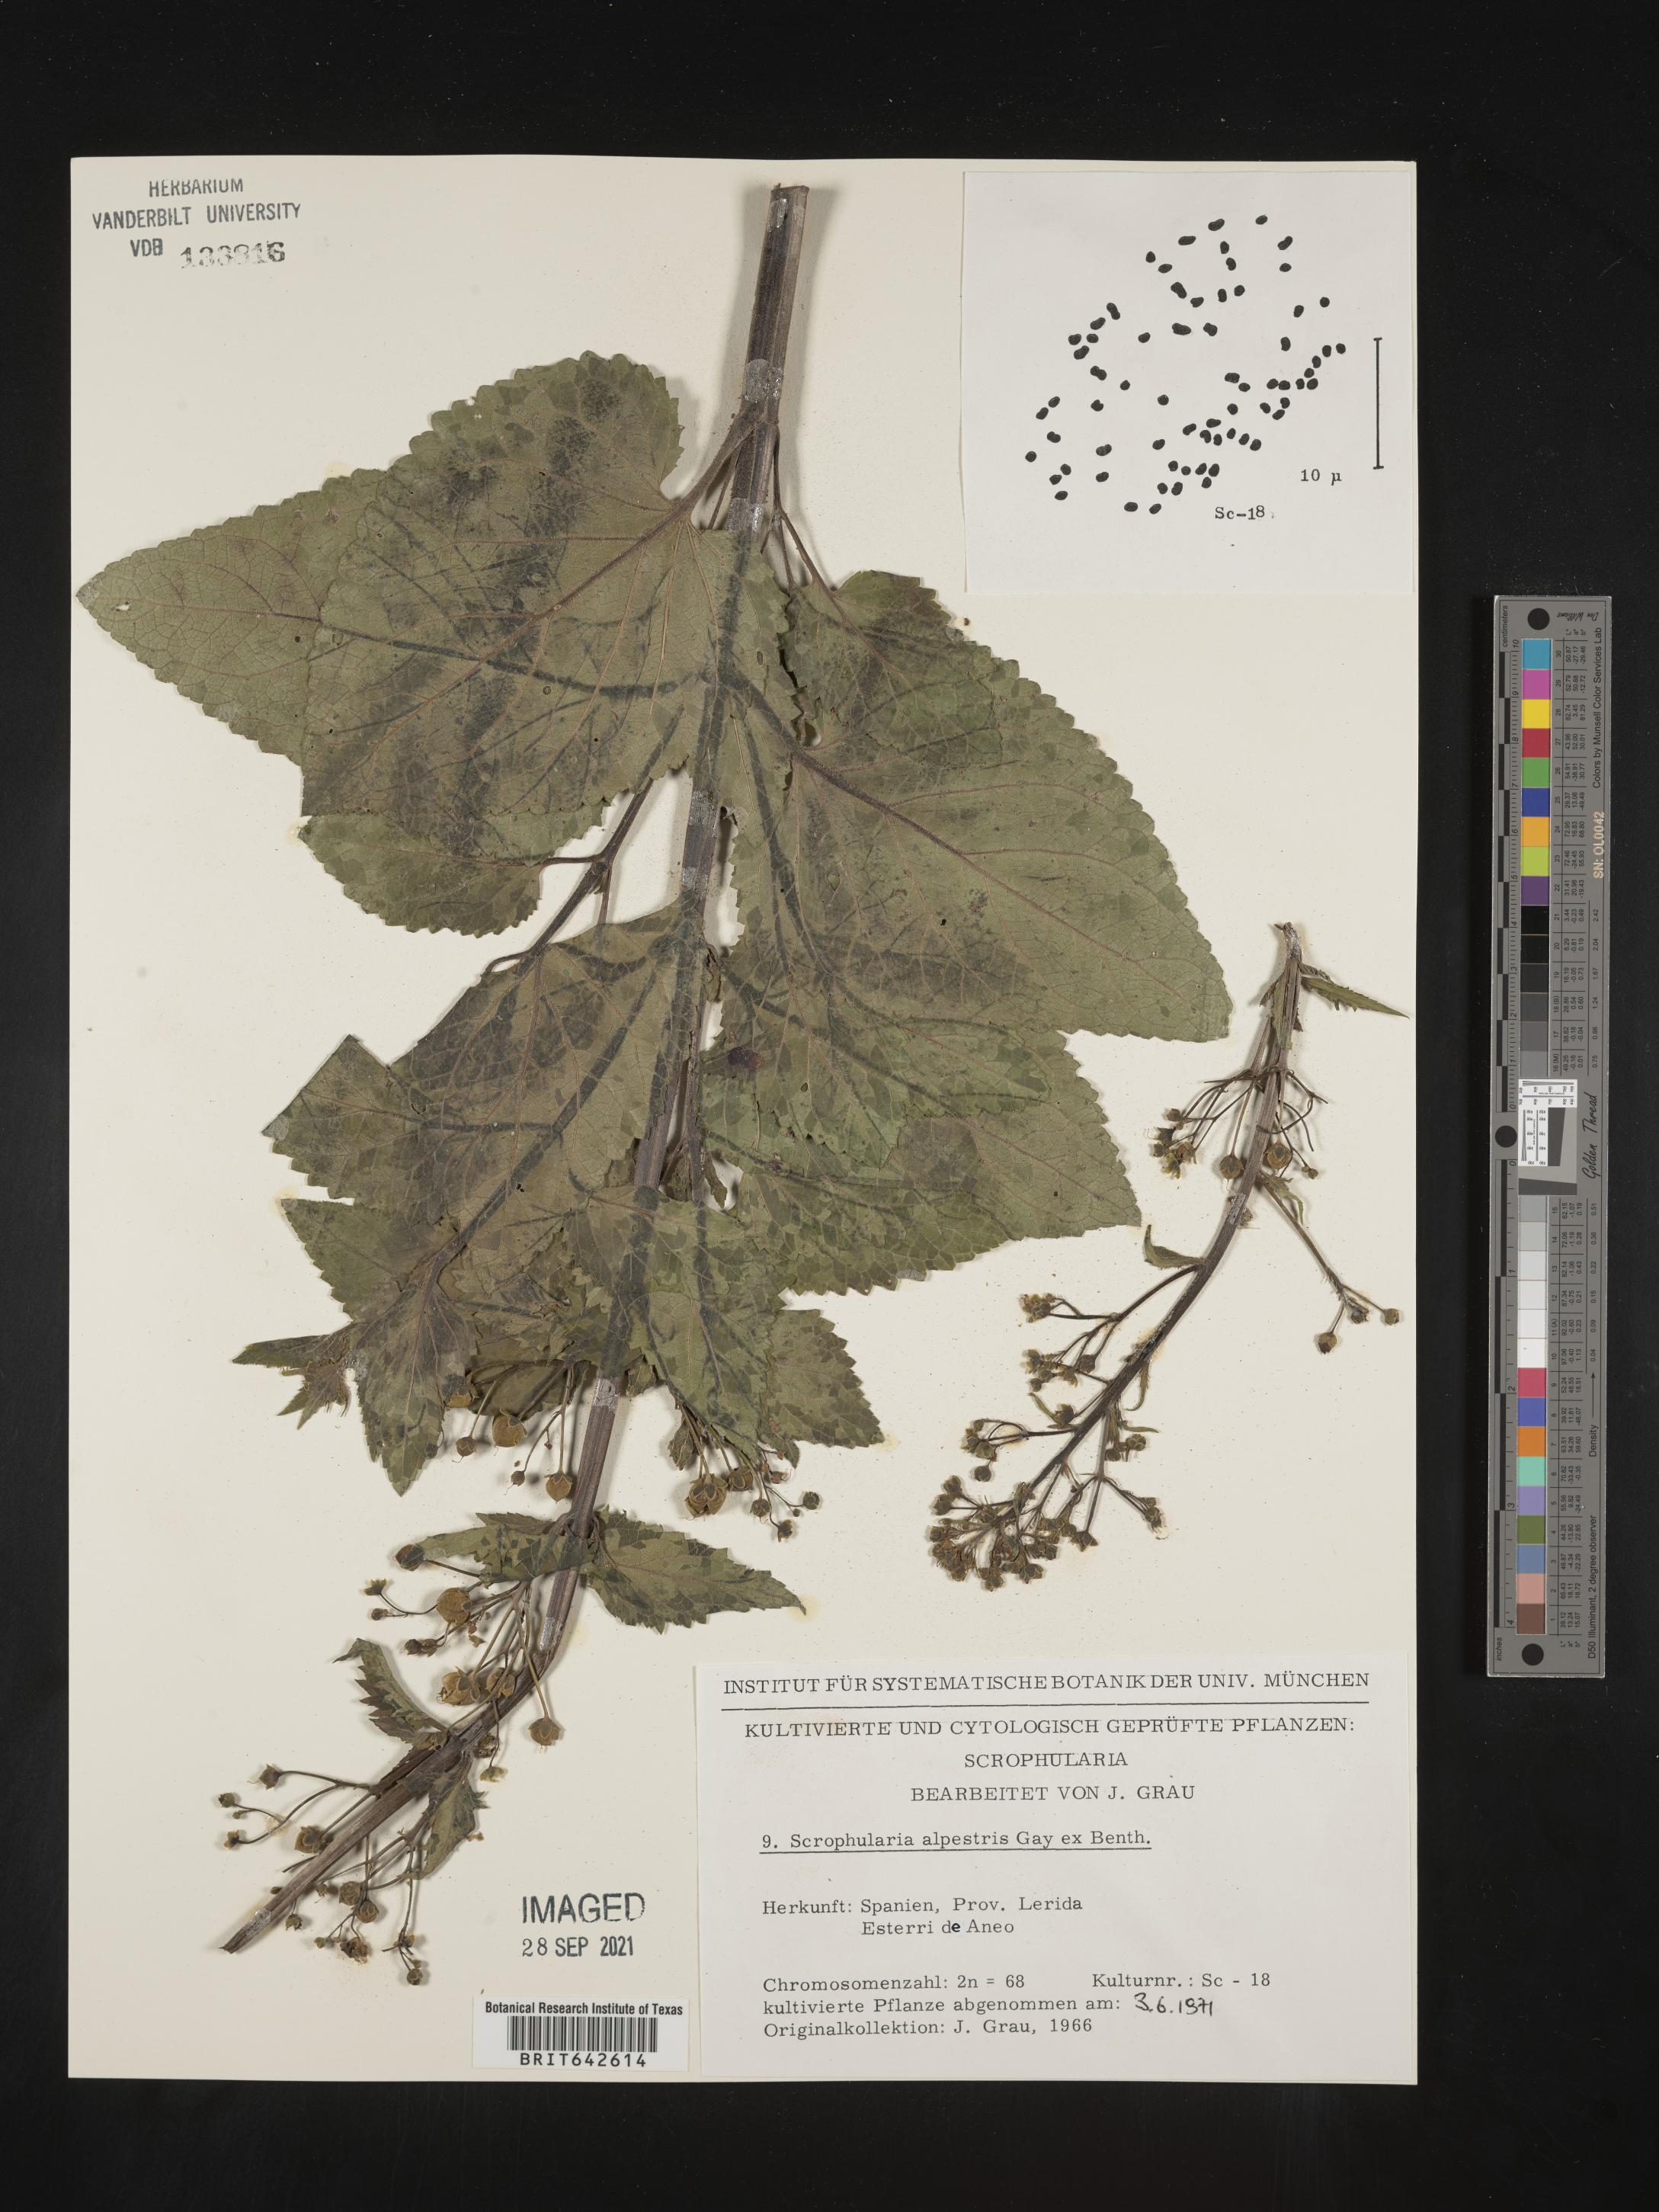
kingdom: Plantae
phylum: Tracheophyta
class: Magnoliopsida
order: Lamiales
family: Scrophulariaceae
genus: Scrophularia
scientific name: Scrophularia
